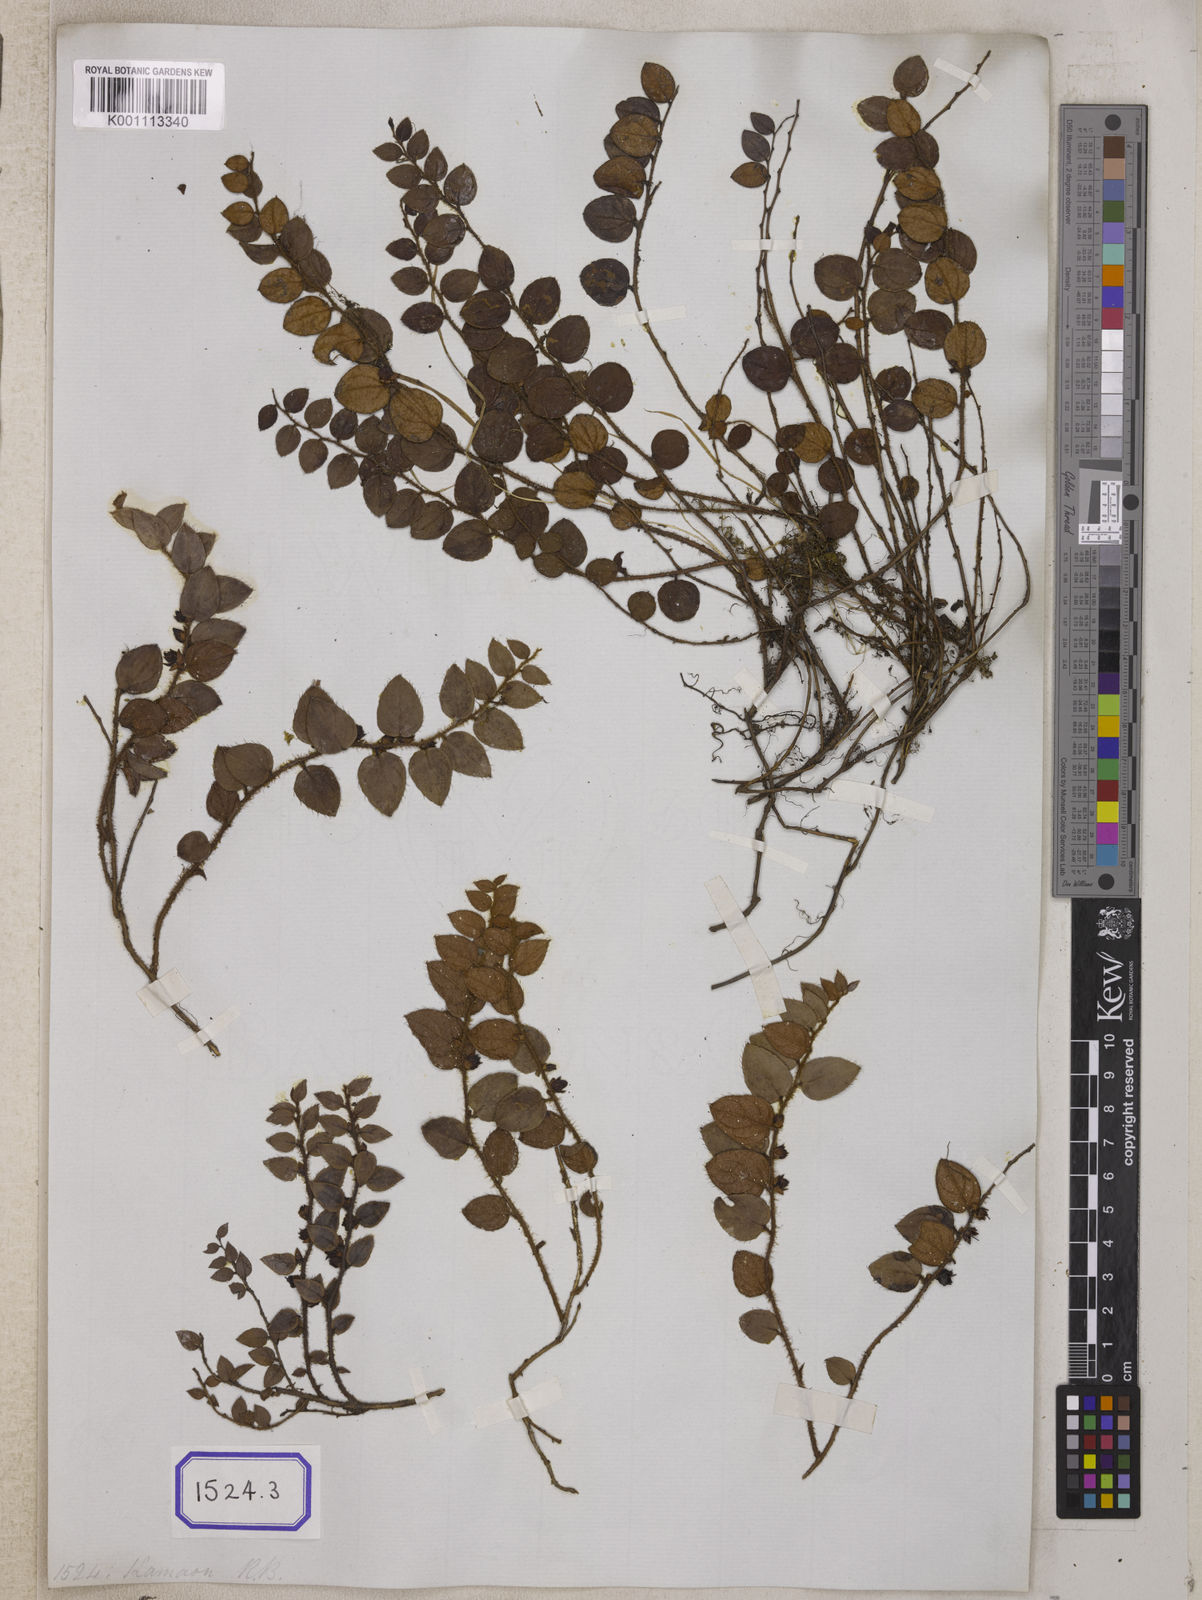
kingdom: Plantae
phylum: Tracheophyta
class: Magnoliopsida
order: Ericales
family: Ericaceae
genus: Gaultheria
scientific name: Gaultheria nummularioides
